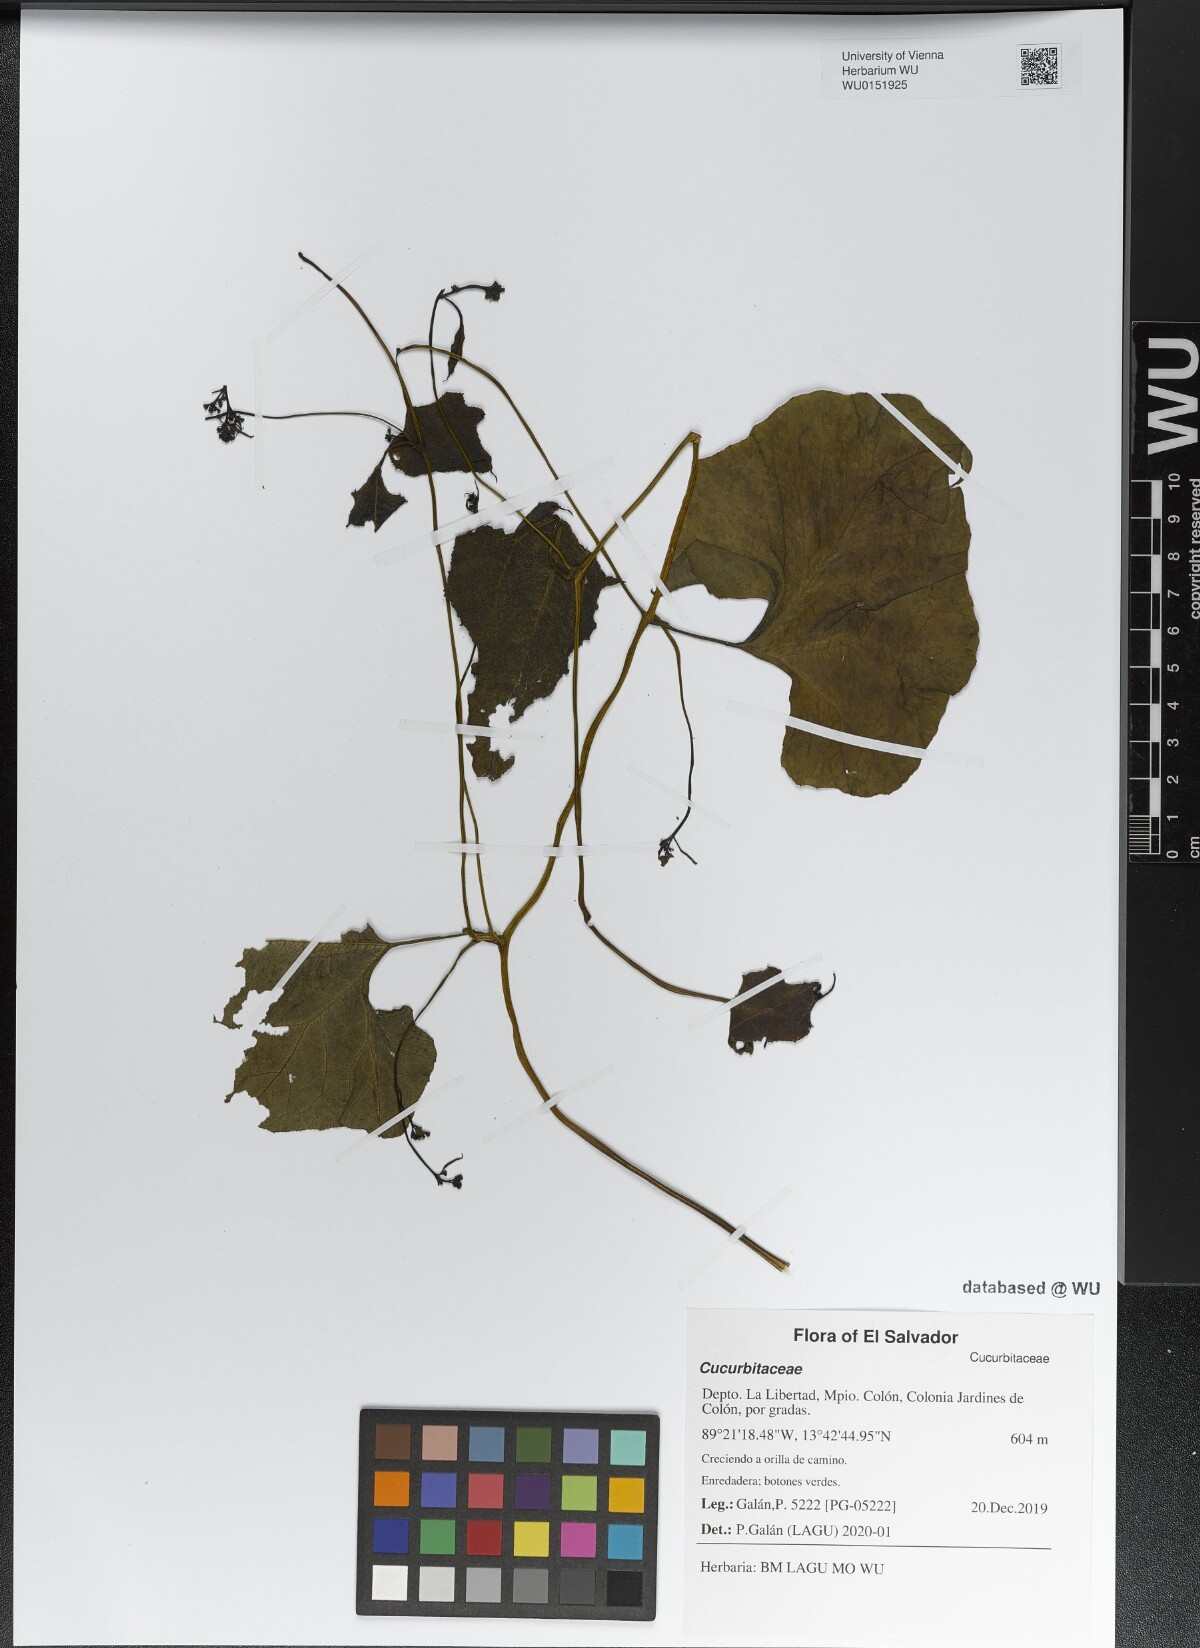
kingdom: Plantae
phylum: Tracheophyta
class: Magnoliopsida
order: Cucurbitales
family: Cucurbitaceae
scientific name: Cucurbitaceae
